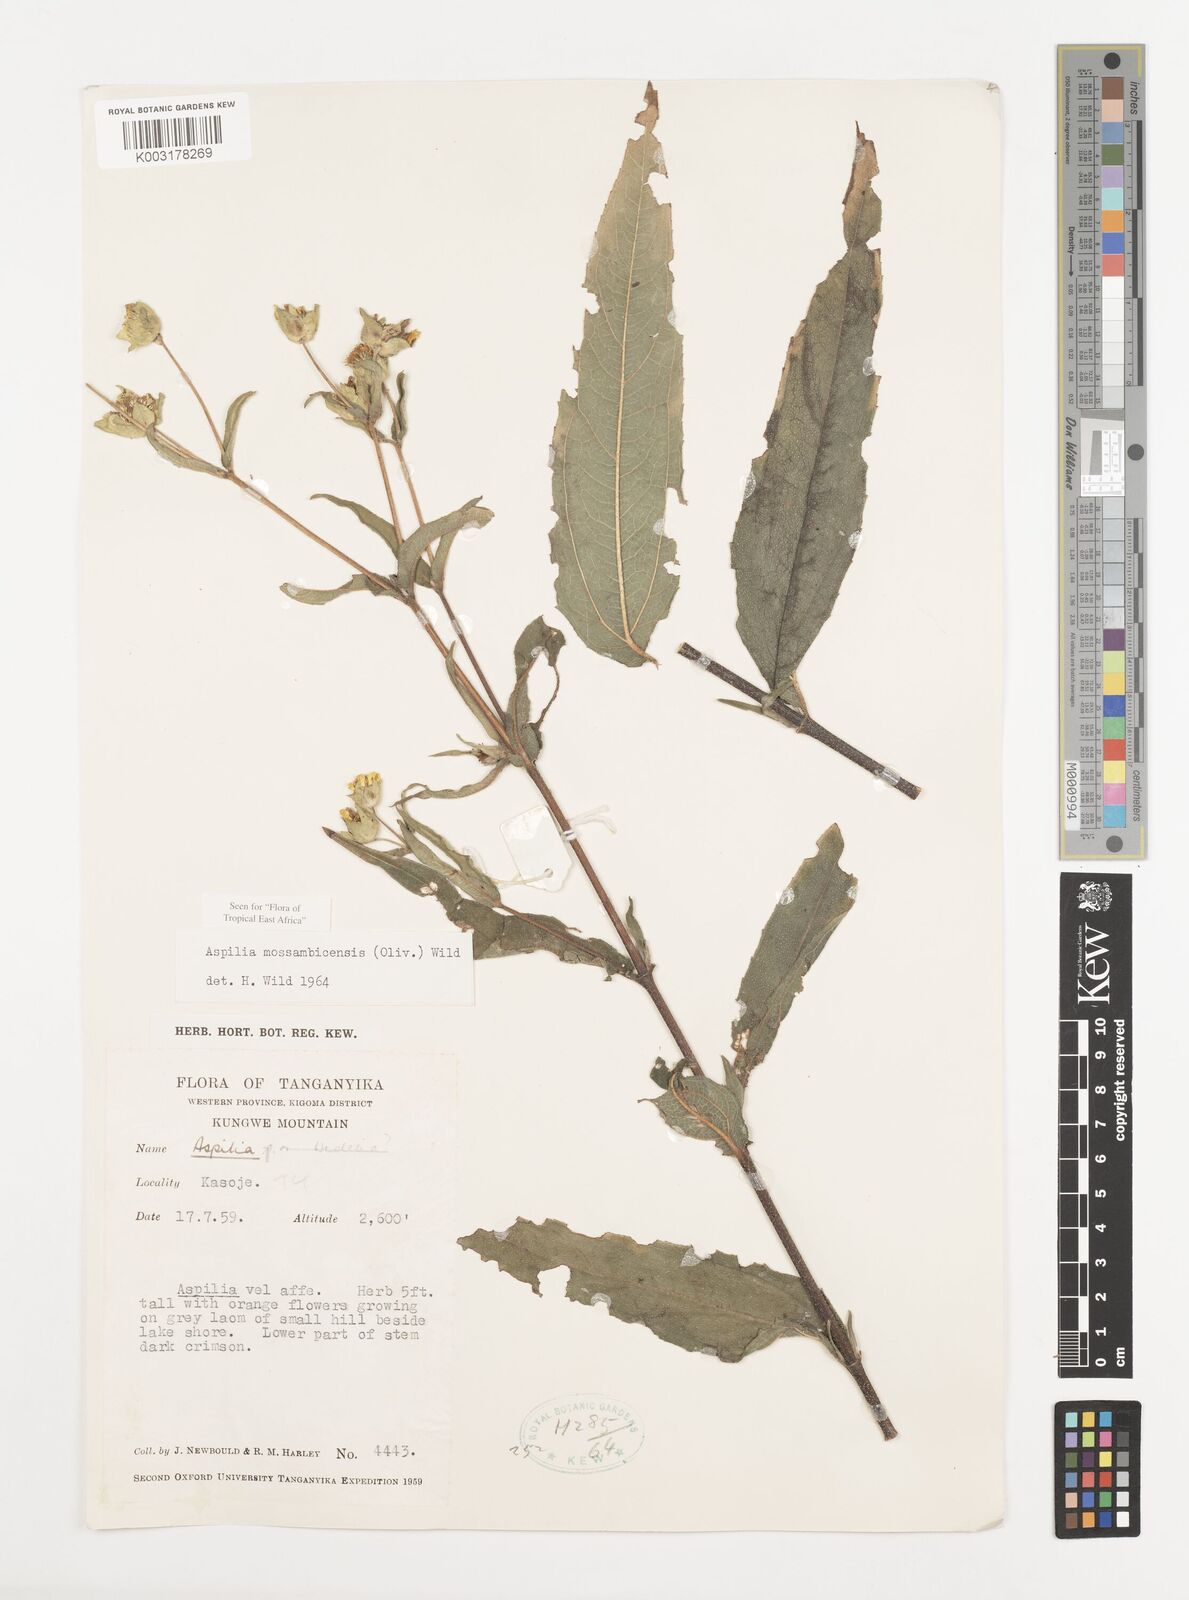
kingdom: Plantae
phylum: Tracheophyta
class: Magnoliopsida
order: Asterales
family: Asteraceae
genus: Aspilia
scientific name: Aspilia mossambicensis
